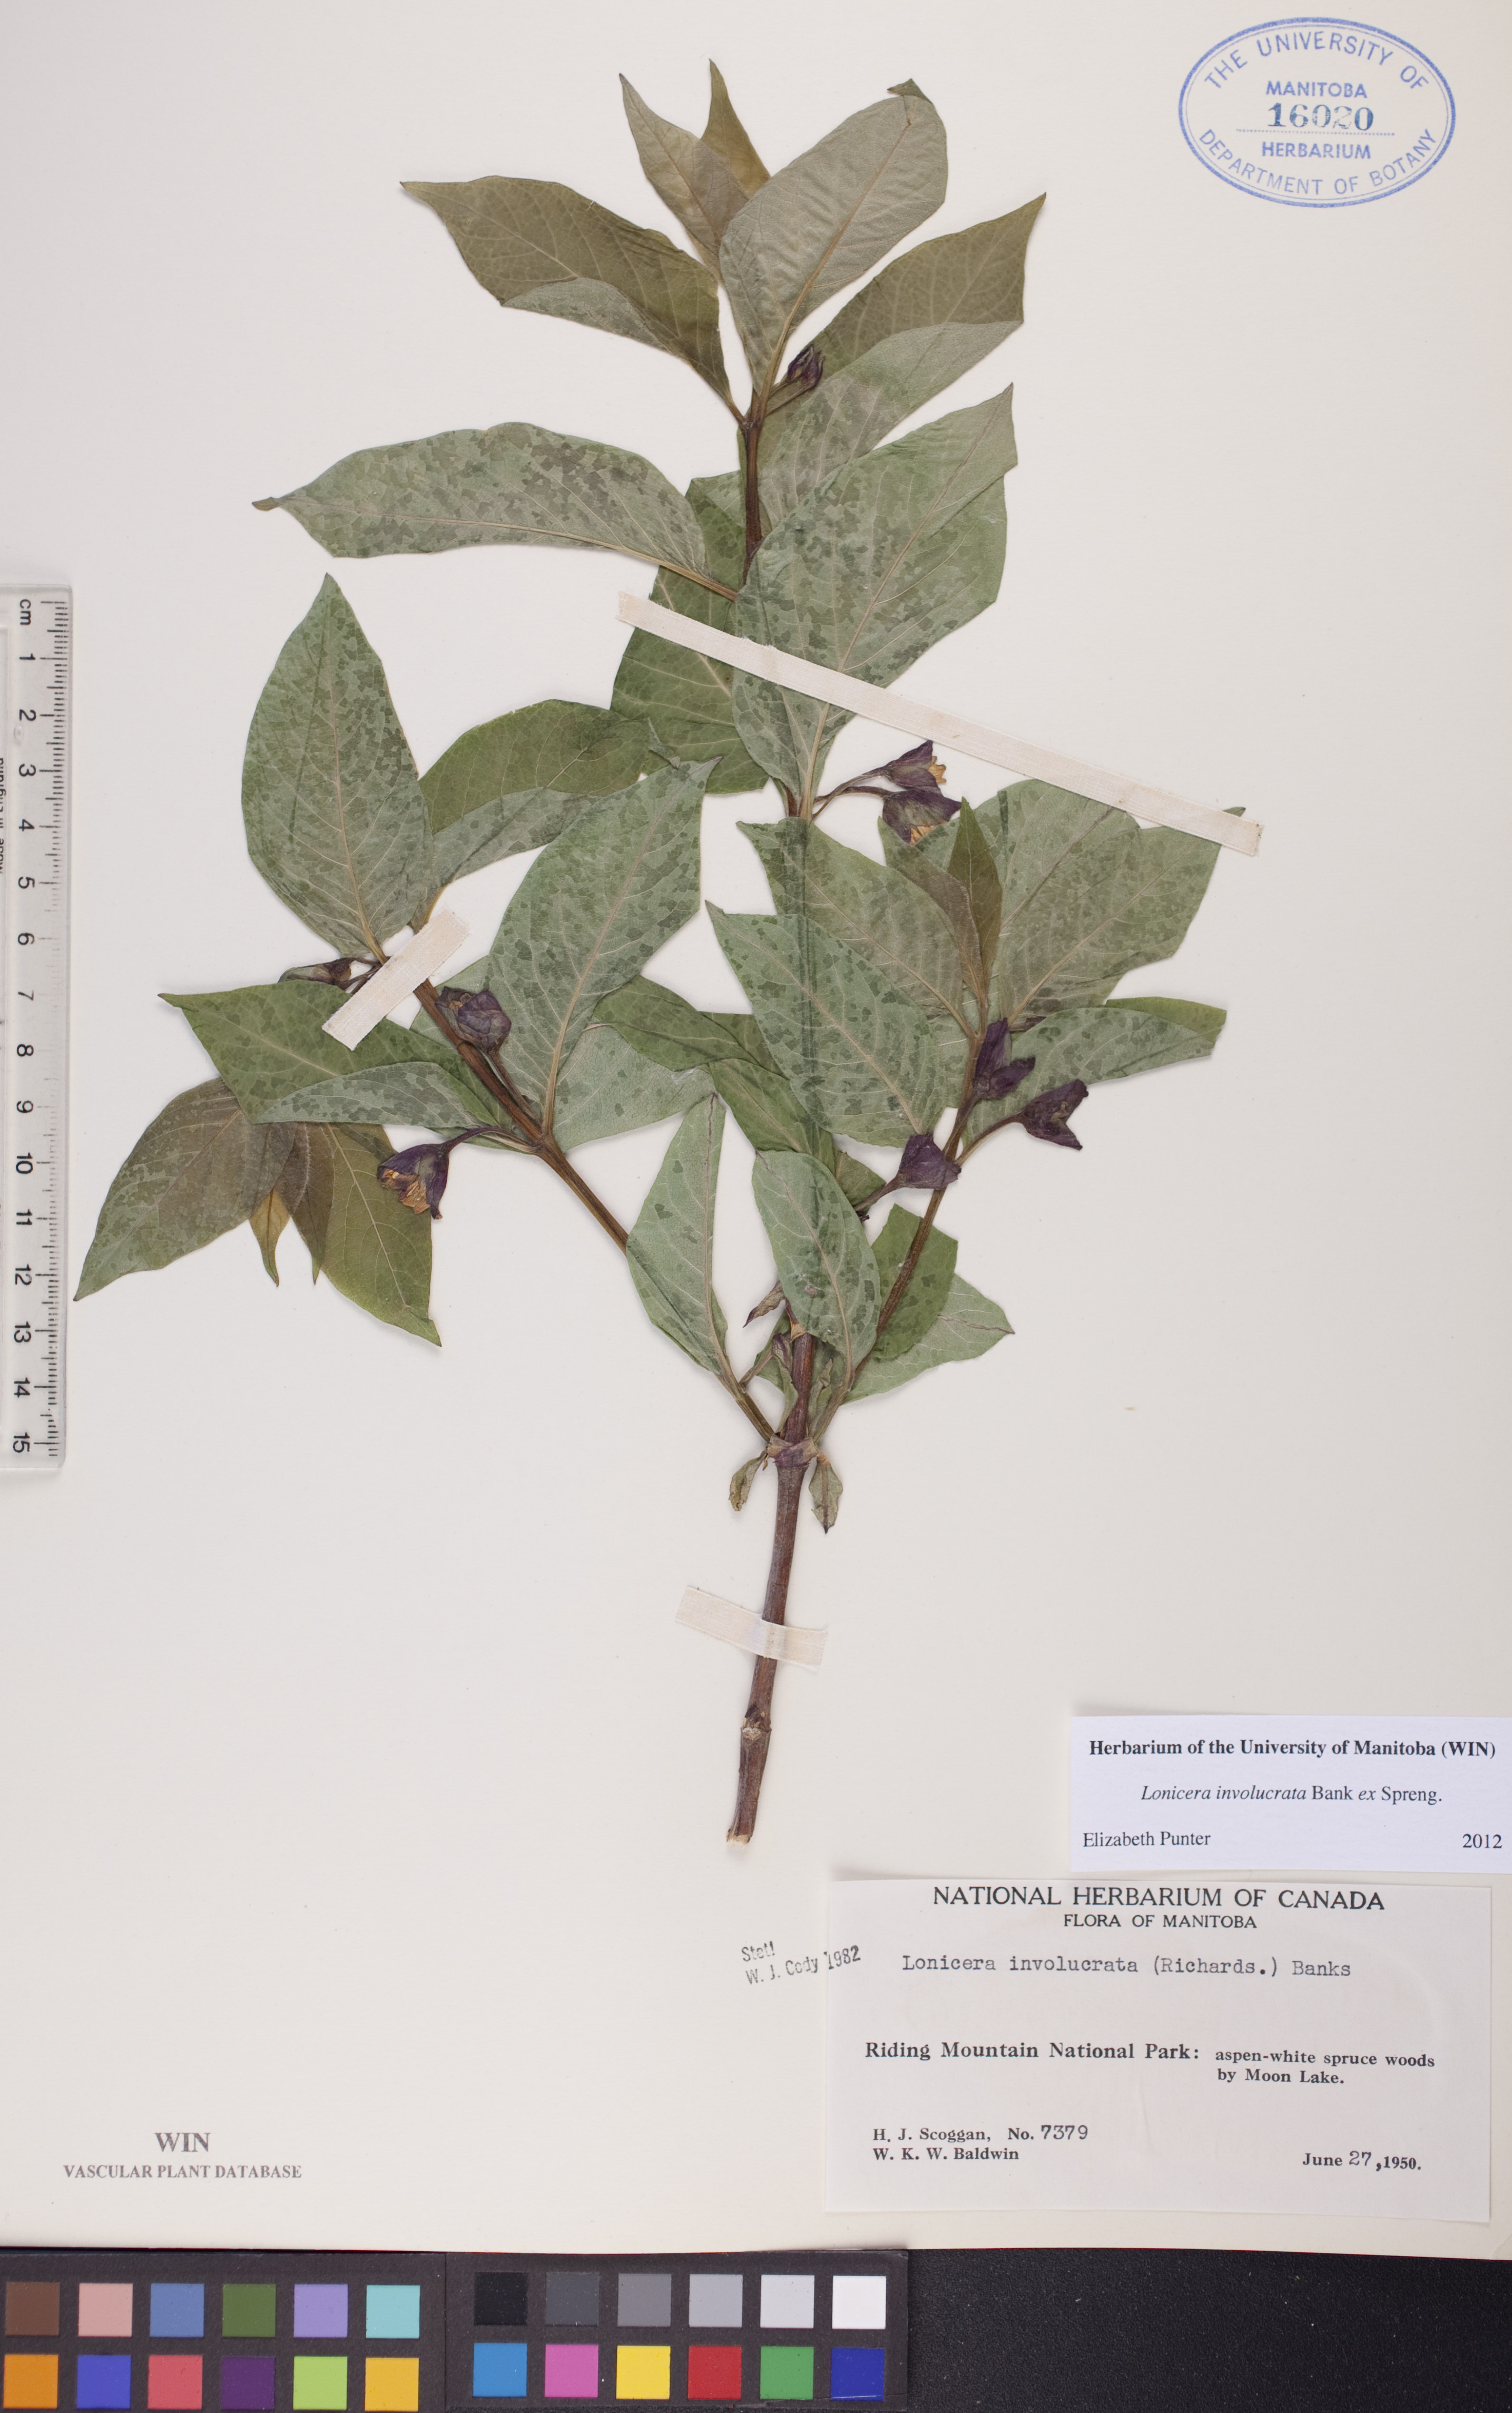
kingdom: Plantae
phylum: Tracheophyta
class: Magnoliopsida
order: Dipsacales
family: Caprifoliaceae
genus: Lonicera
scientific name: Lonicera involucrata
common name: Californian honeysuckle
